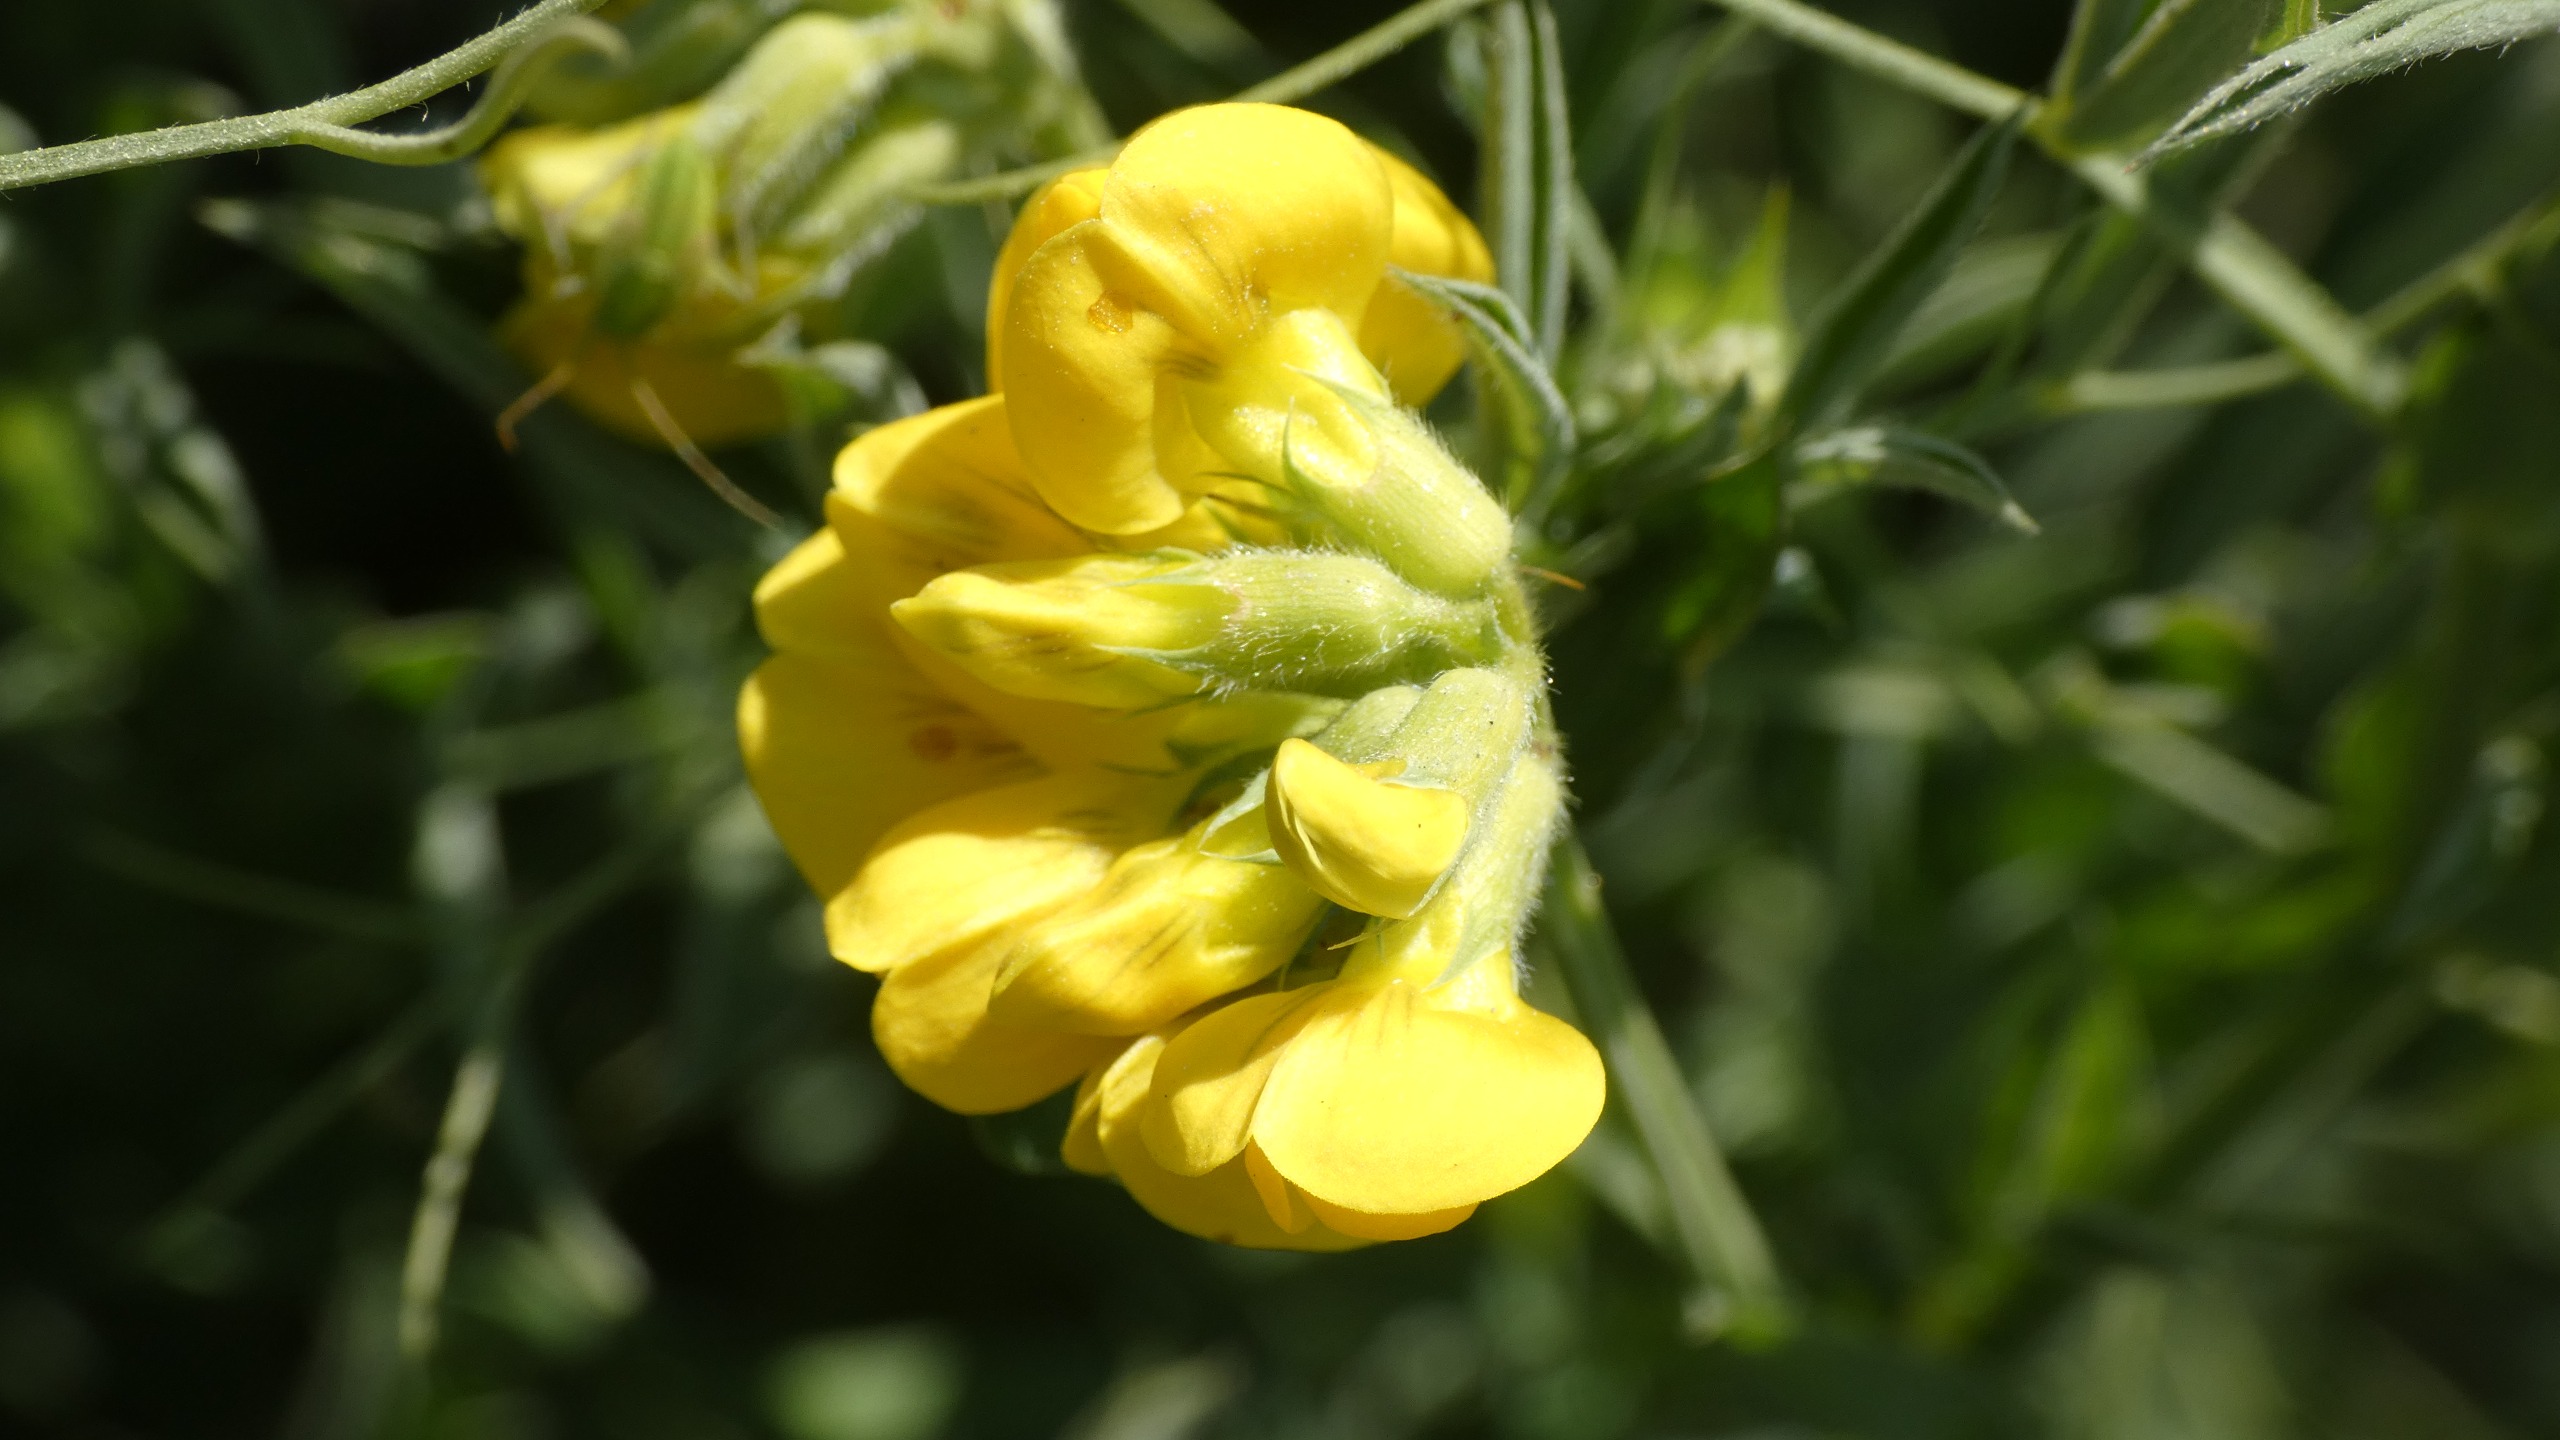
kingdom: Plantae
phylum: Tracheophyta
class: Magnoliopsida
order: Fabales
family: Fabaceae
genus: Lathyrus
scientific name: Lathyrus pratensis
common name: Gul fladbælg
